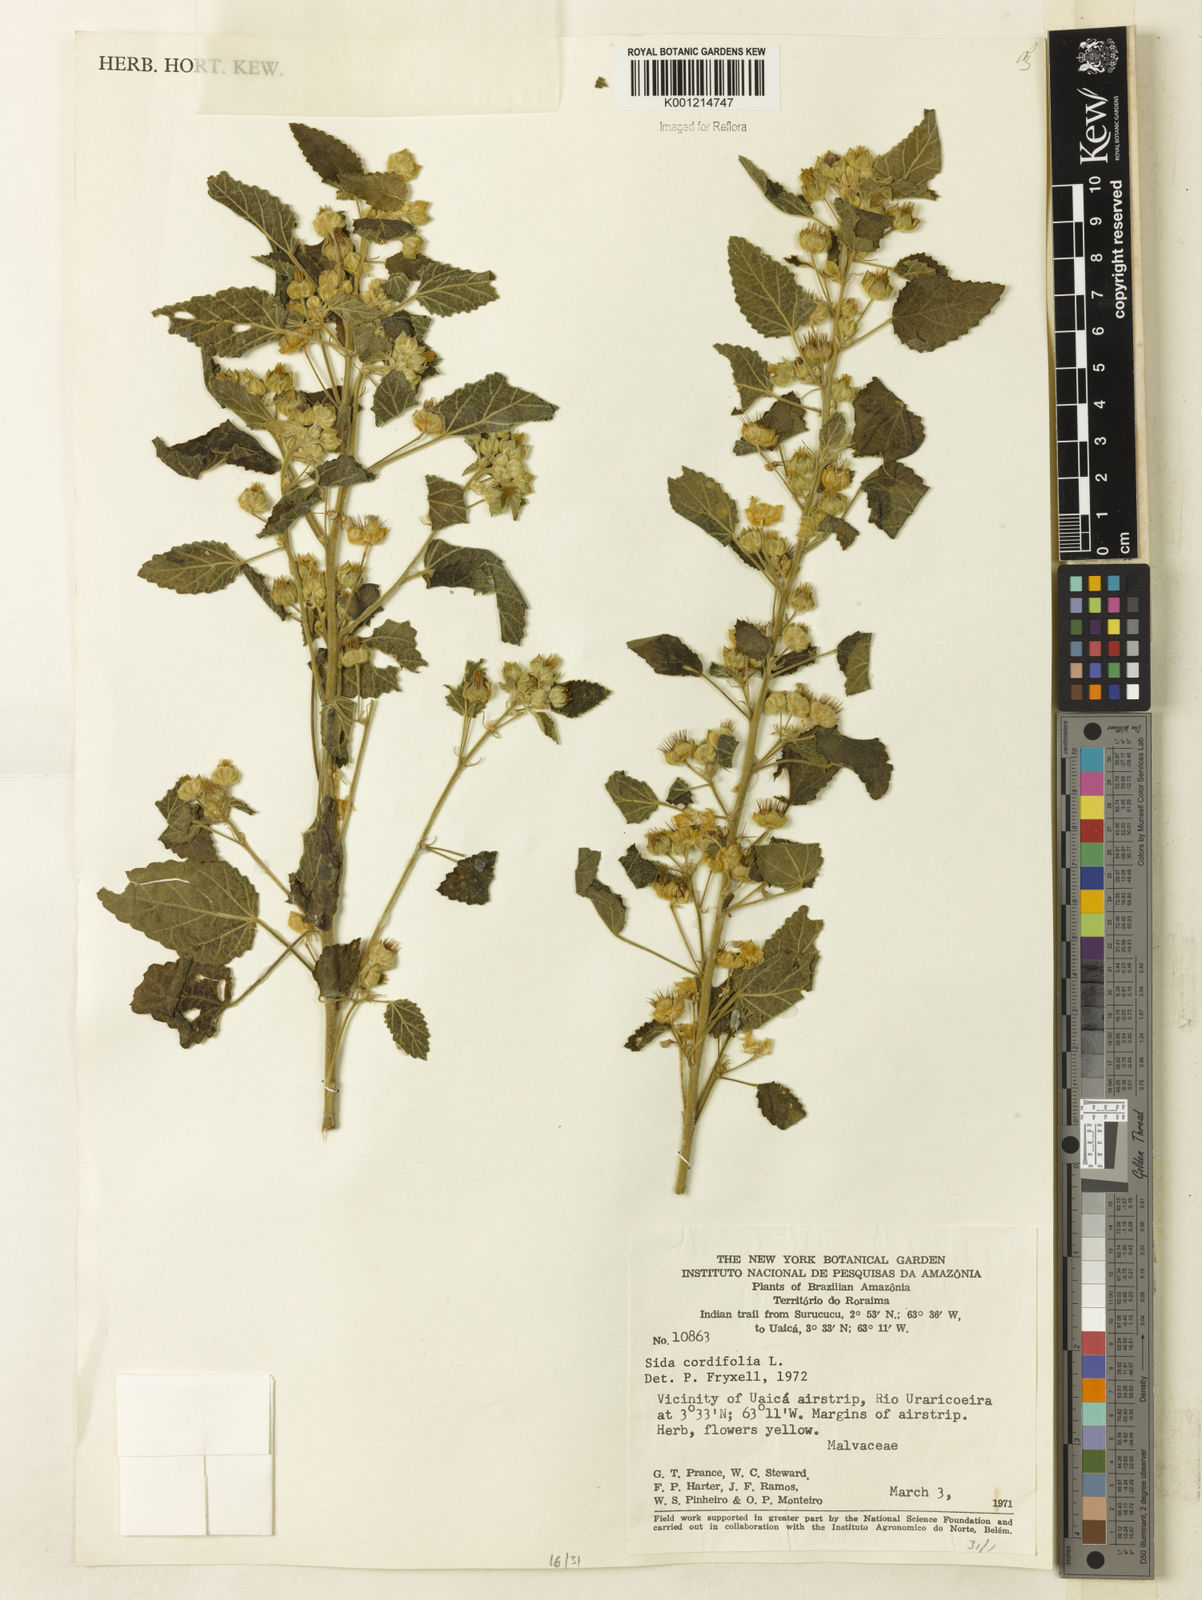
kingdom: Plantae
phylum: Tracheophyta
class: Magnoliopsida
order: Malvales
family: Malvaceae
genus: Sida
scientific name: Sida cordifolia
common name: Ilima
